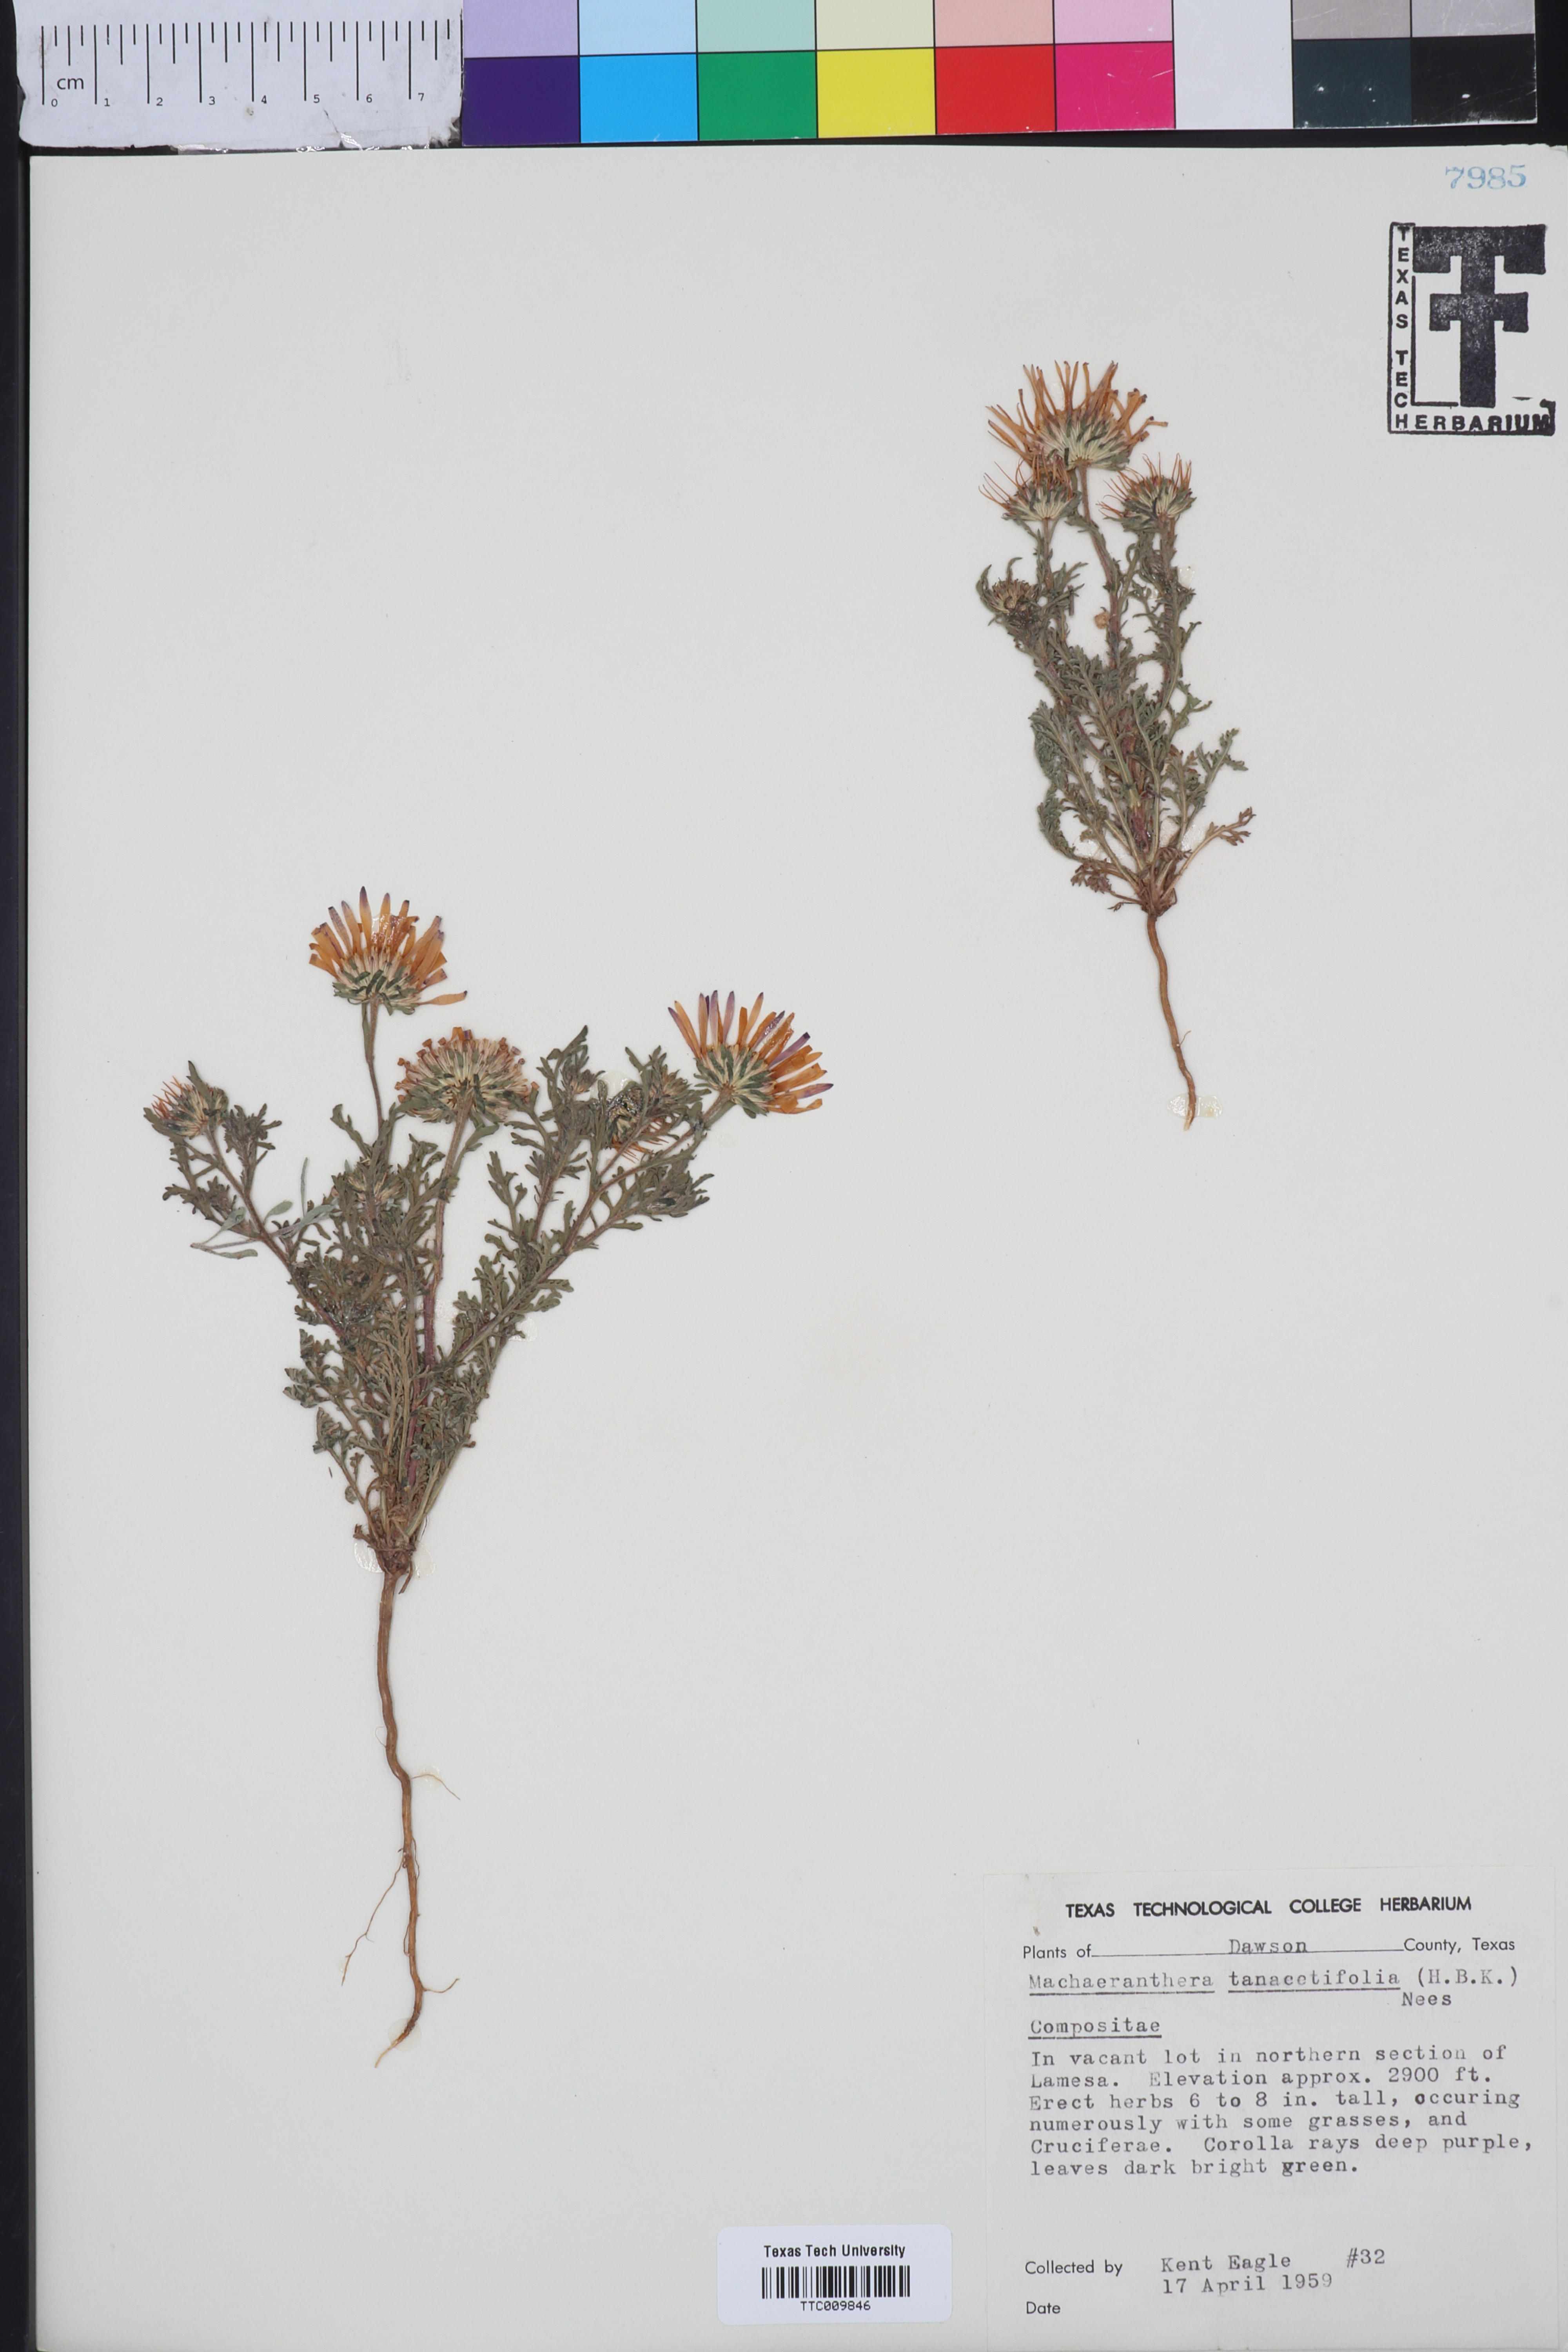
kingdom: Plantae
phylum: Tracheophyta
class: Magnoliopsida
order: Asterales
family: Asteraceae
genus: Machaeranthera
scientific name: Machaeranthera tanacetifolia
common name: Tansy-aster
